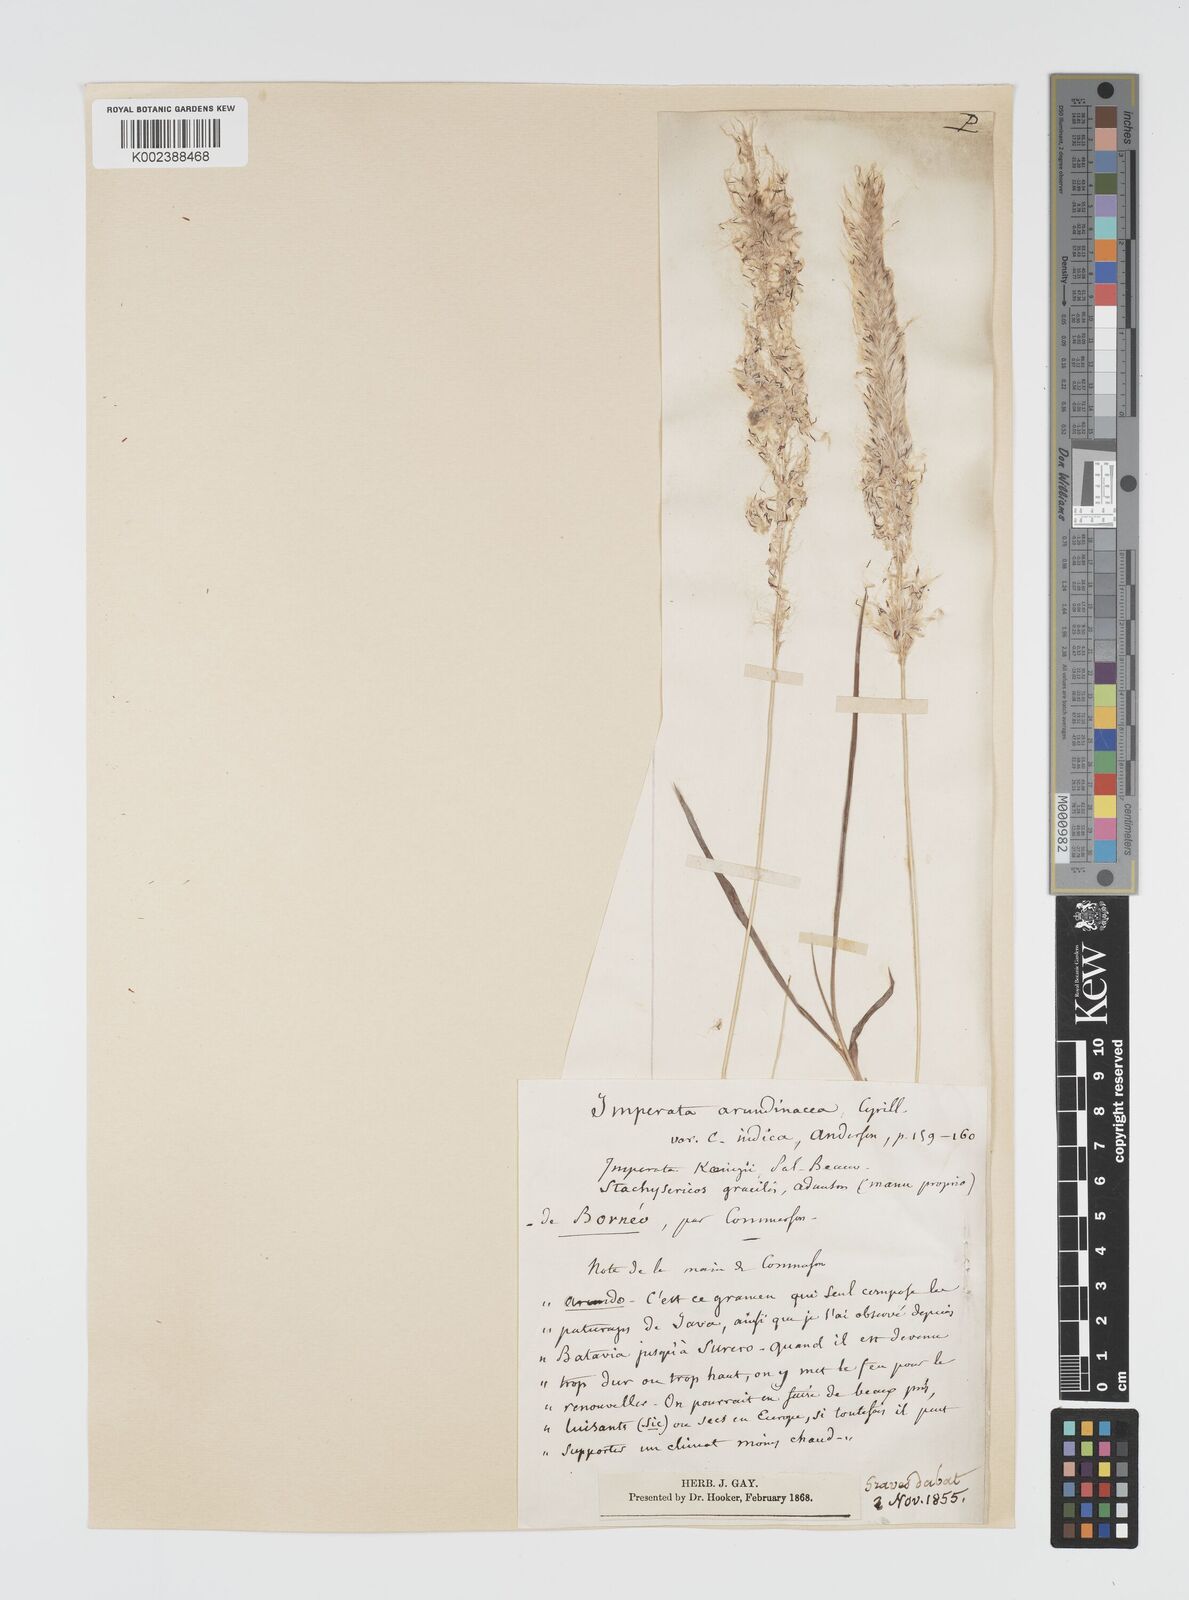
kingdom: Plantae
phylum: Tracheophyta
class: Liliopsida
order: Poales
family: Poaceae
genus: Imperata
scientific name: Imperata cylindrica
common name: Cogongrass
